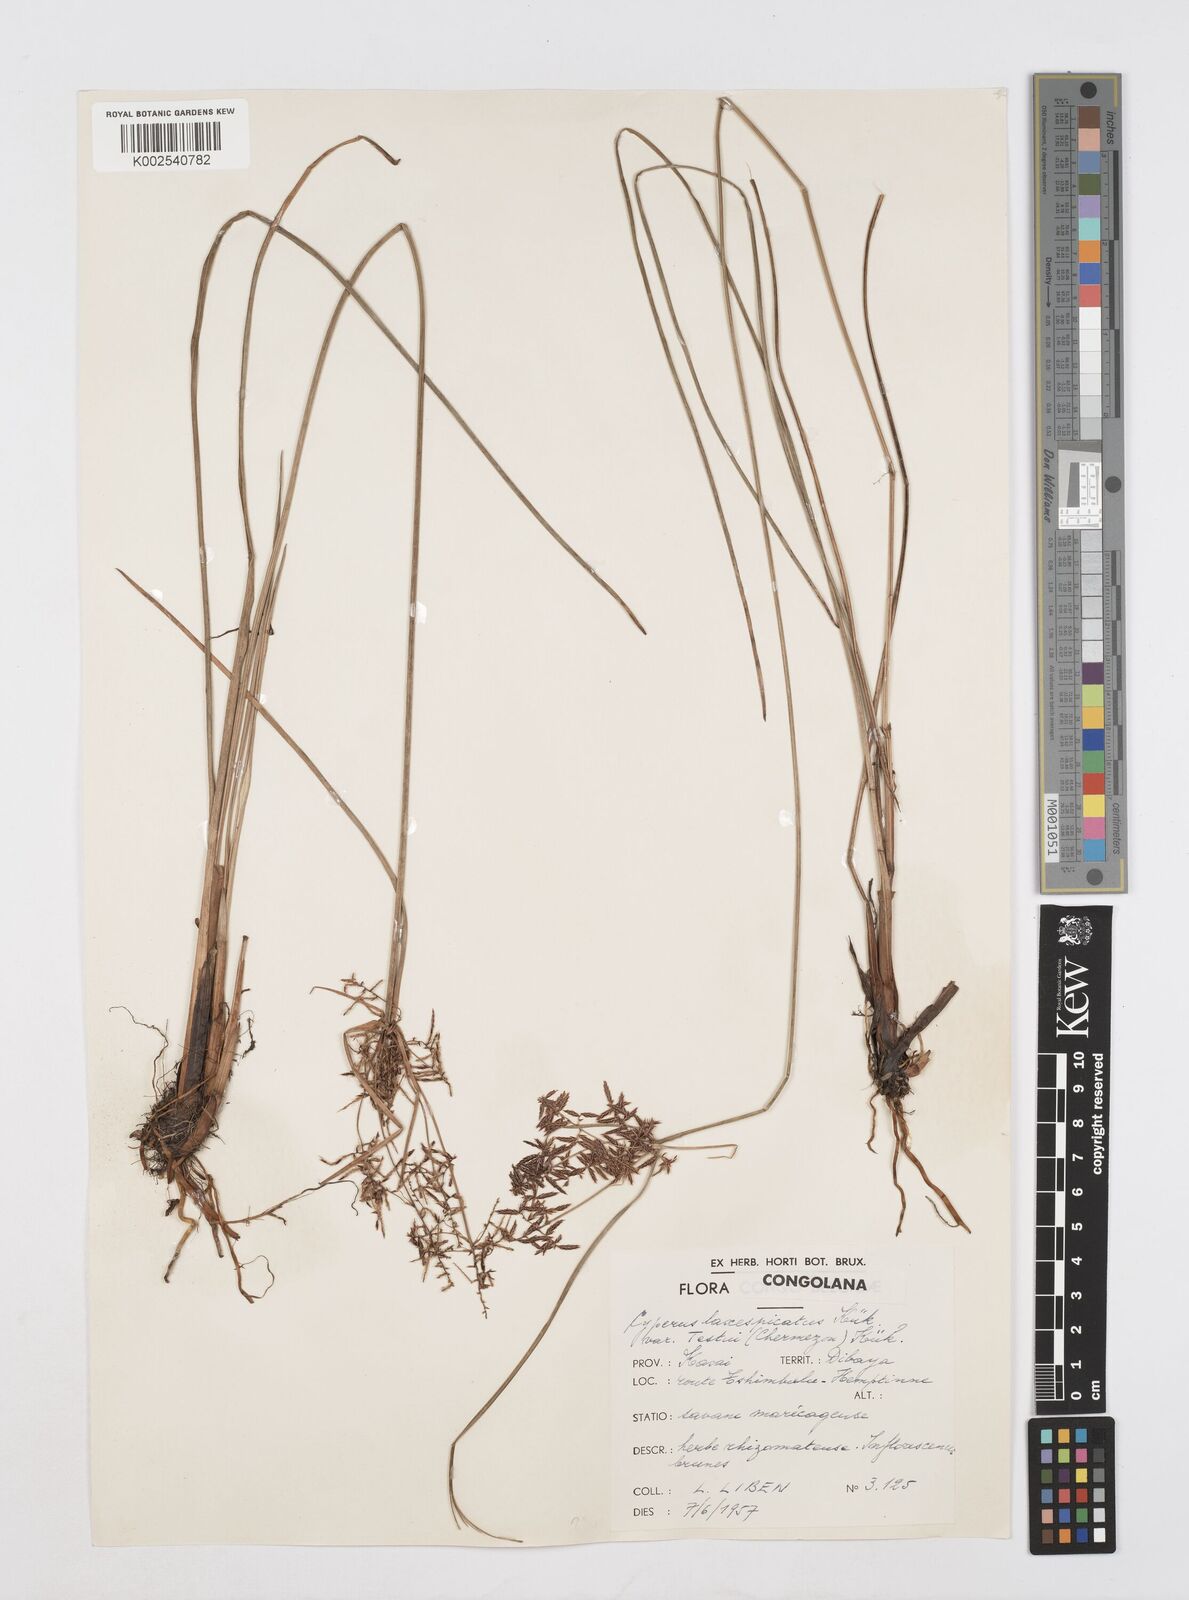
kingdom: Plantae
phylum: Tracheophyta
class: Liliopsida
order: Poales
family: Cyperaceae
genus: Cyperus
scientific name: Cyperus aethiops
